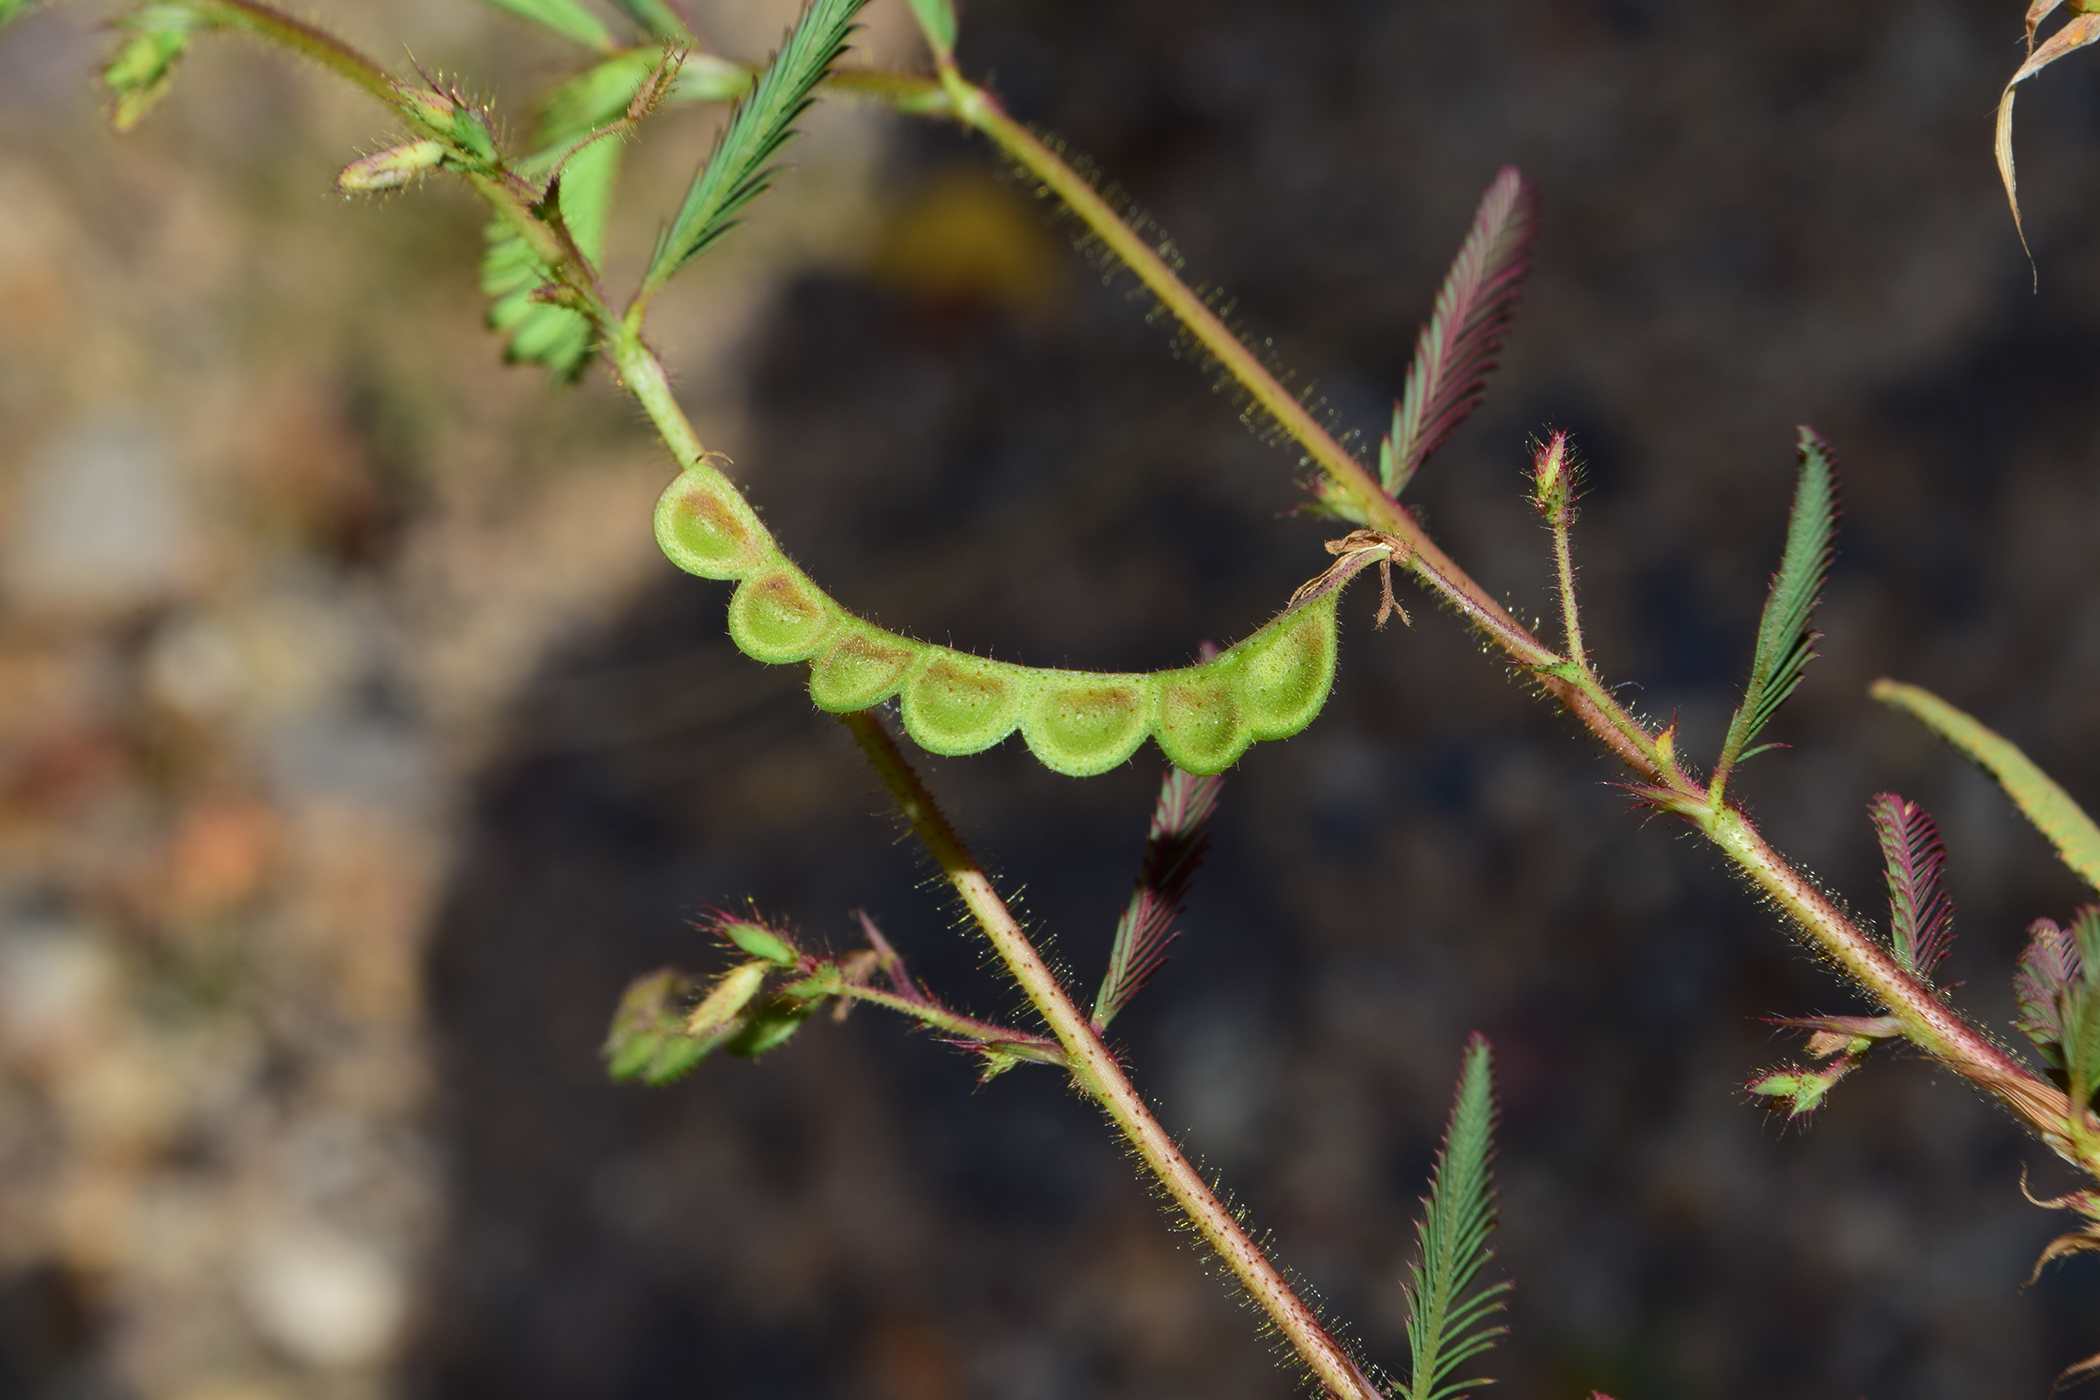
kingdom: Plantae
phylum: Tracheophyta
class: Magnoliopsida
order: Fabales
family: Fabaceae
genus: Aeschynomene
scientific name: Aeschynomene americana
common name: Joint-vetch
